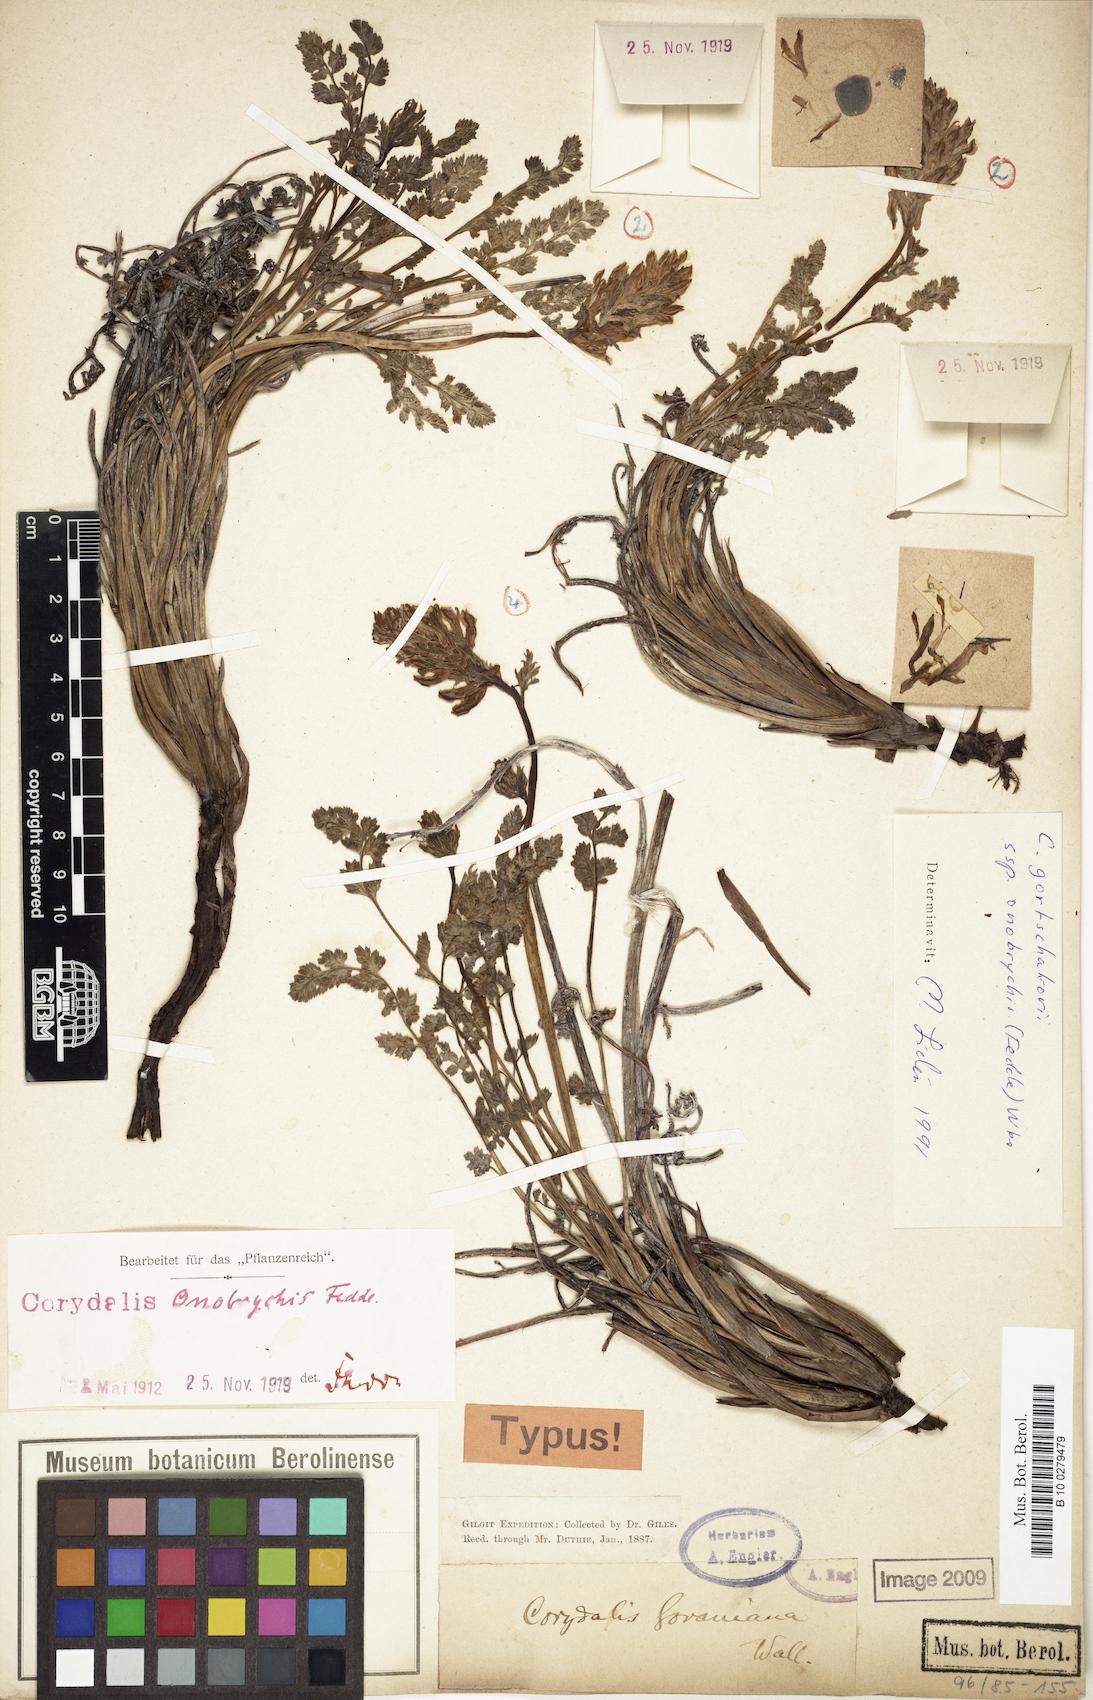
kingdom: Plantae
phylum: Tracheophyta
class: Magnoliopsida
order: Ranunculales
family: Papaveraceae
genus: Corydalis
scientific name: Corydalis onobrychis
